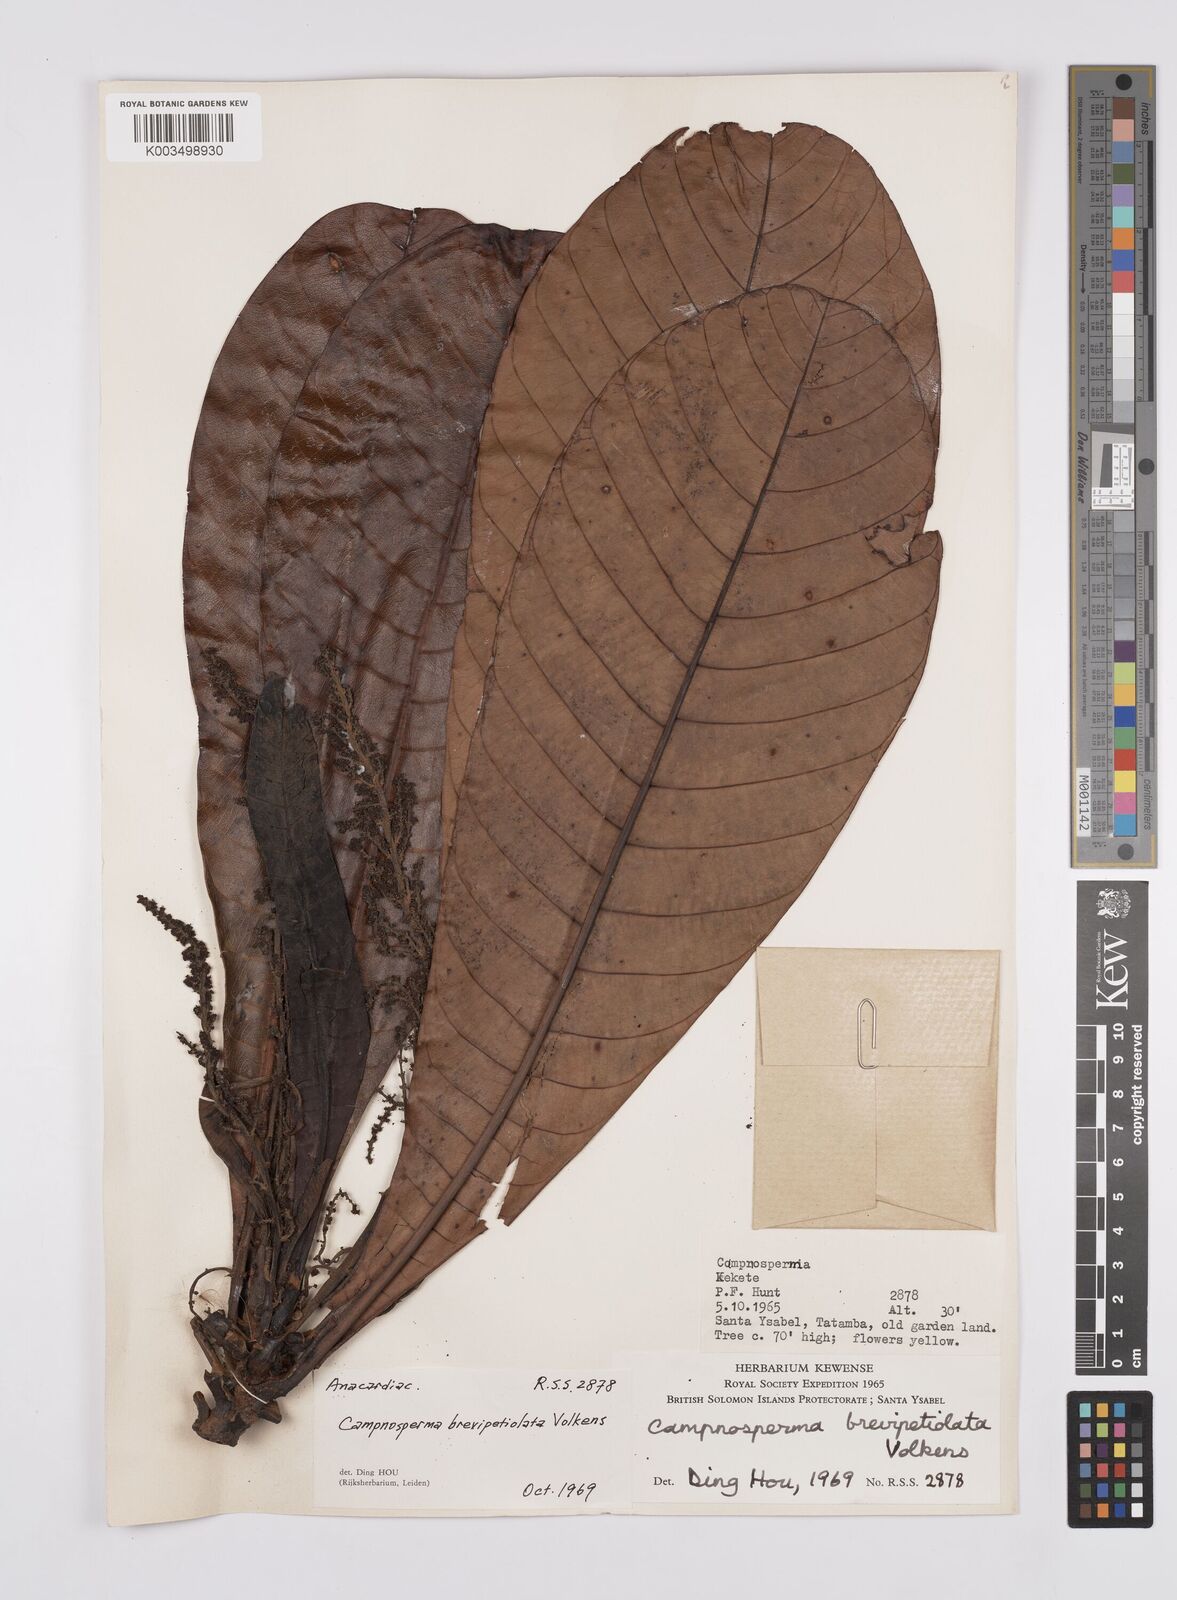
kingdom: Plantae
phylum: Tracheophyta
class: Magnoliopsida
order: Sapindales
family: Anacardiaceae
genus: Campnosperma
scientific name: Campnosperma brevipetiolatum
